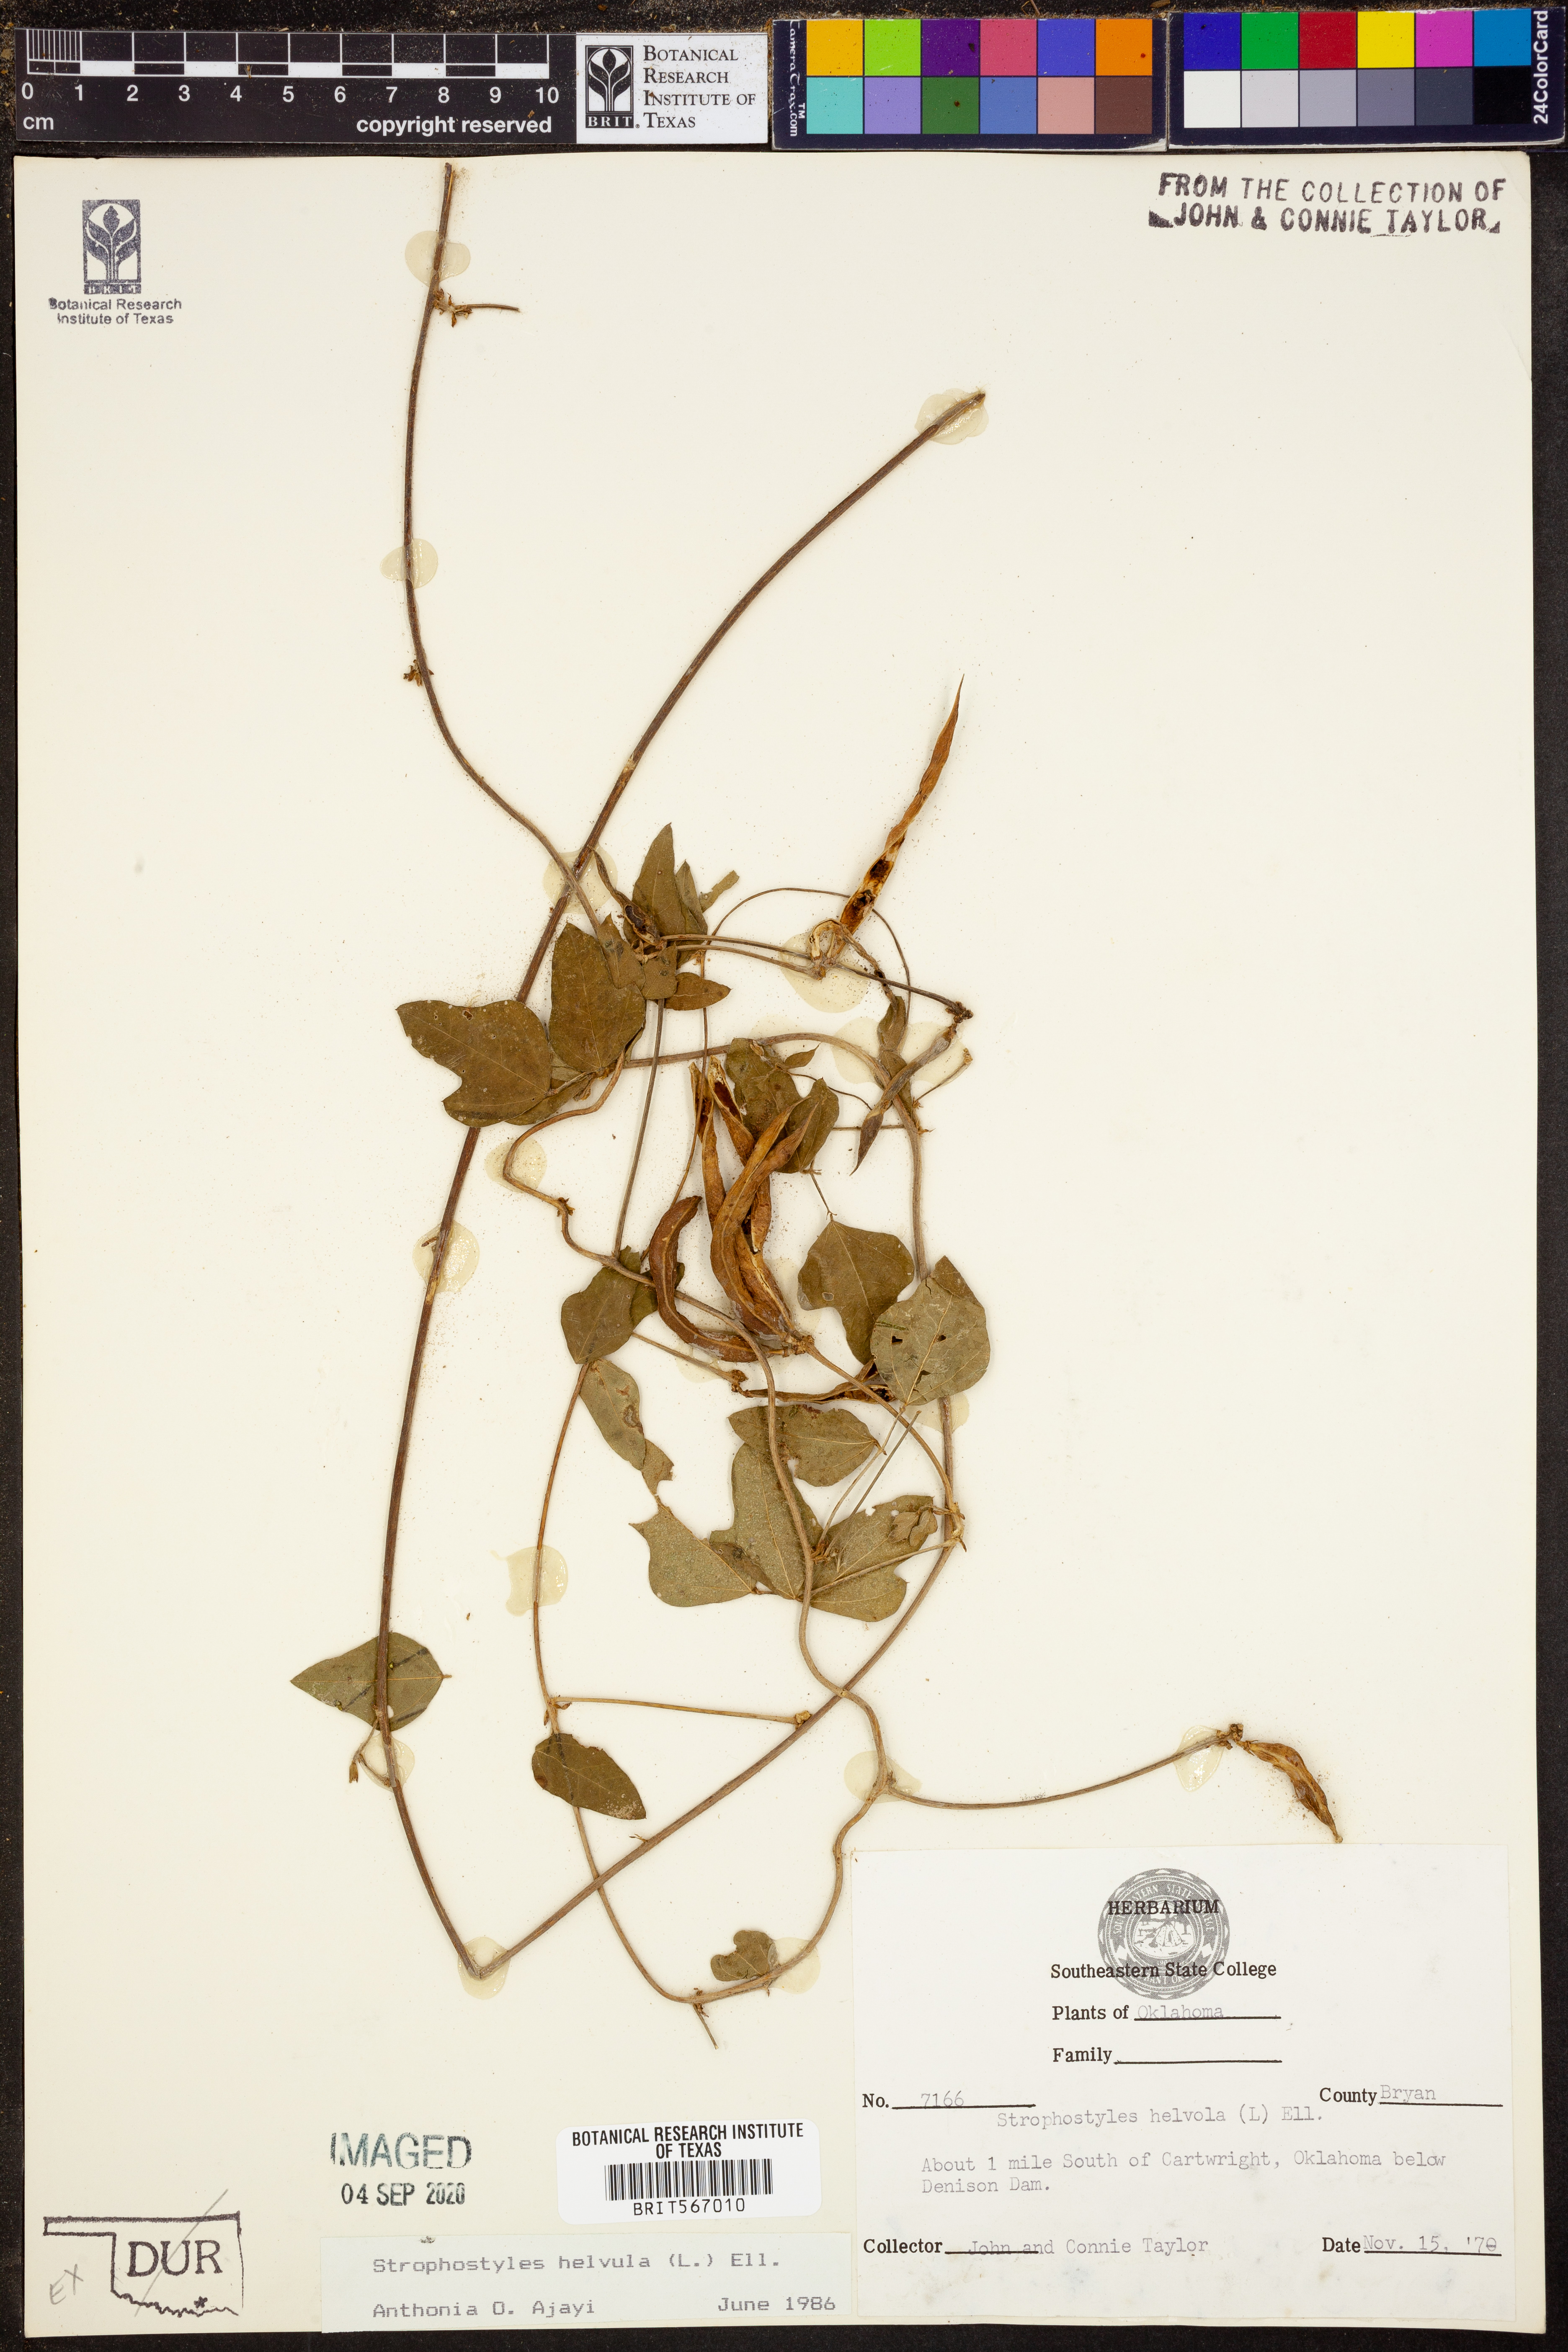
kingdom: Plantae
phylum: Tracheophyta
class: Magnoliopsida
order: Fabales
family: Fabaceae
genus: Strophostyles
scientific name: Strophostyles helvula
